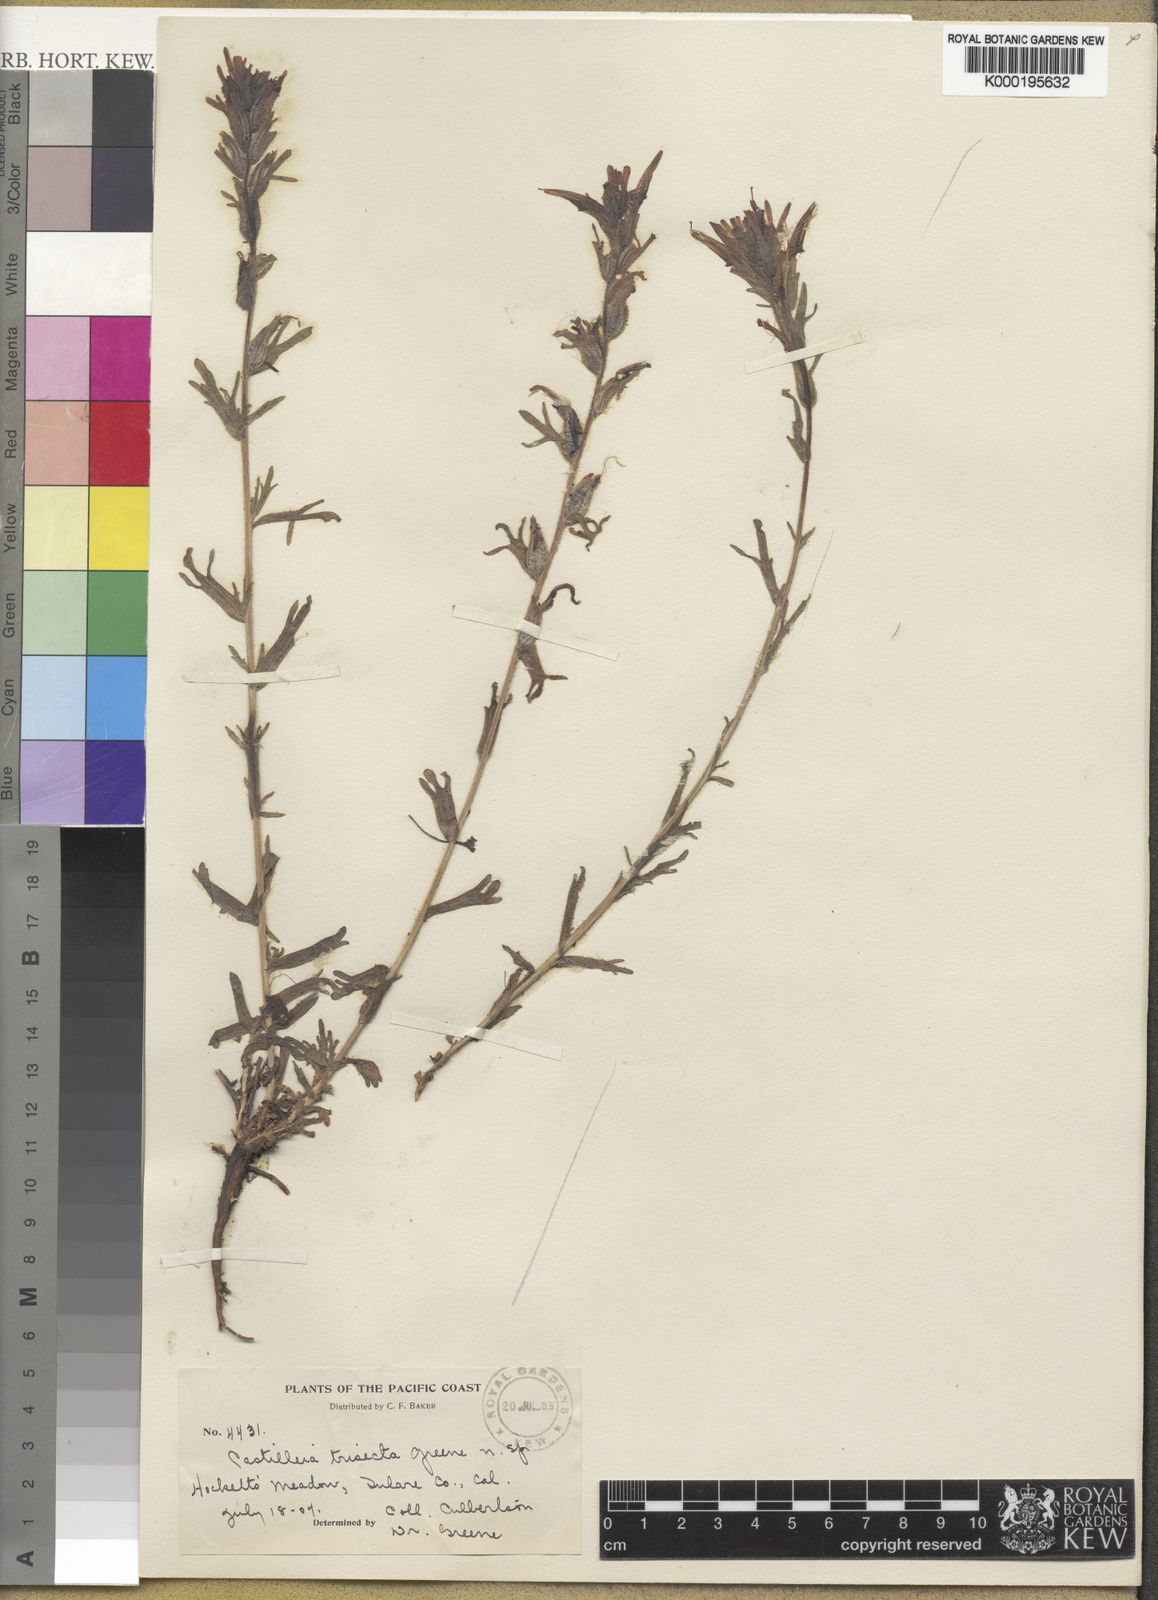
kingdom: Plantae
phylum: Tracheophyta
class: Magnoliopsida
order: Lamiales
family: Orobanchaceae
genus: Castilleja
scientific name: Castilleja applegatei
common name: Wavy-leaf paintbrush
